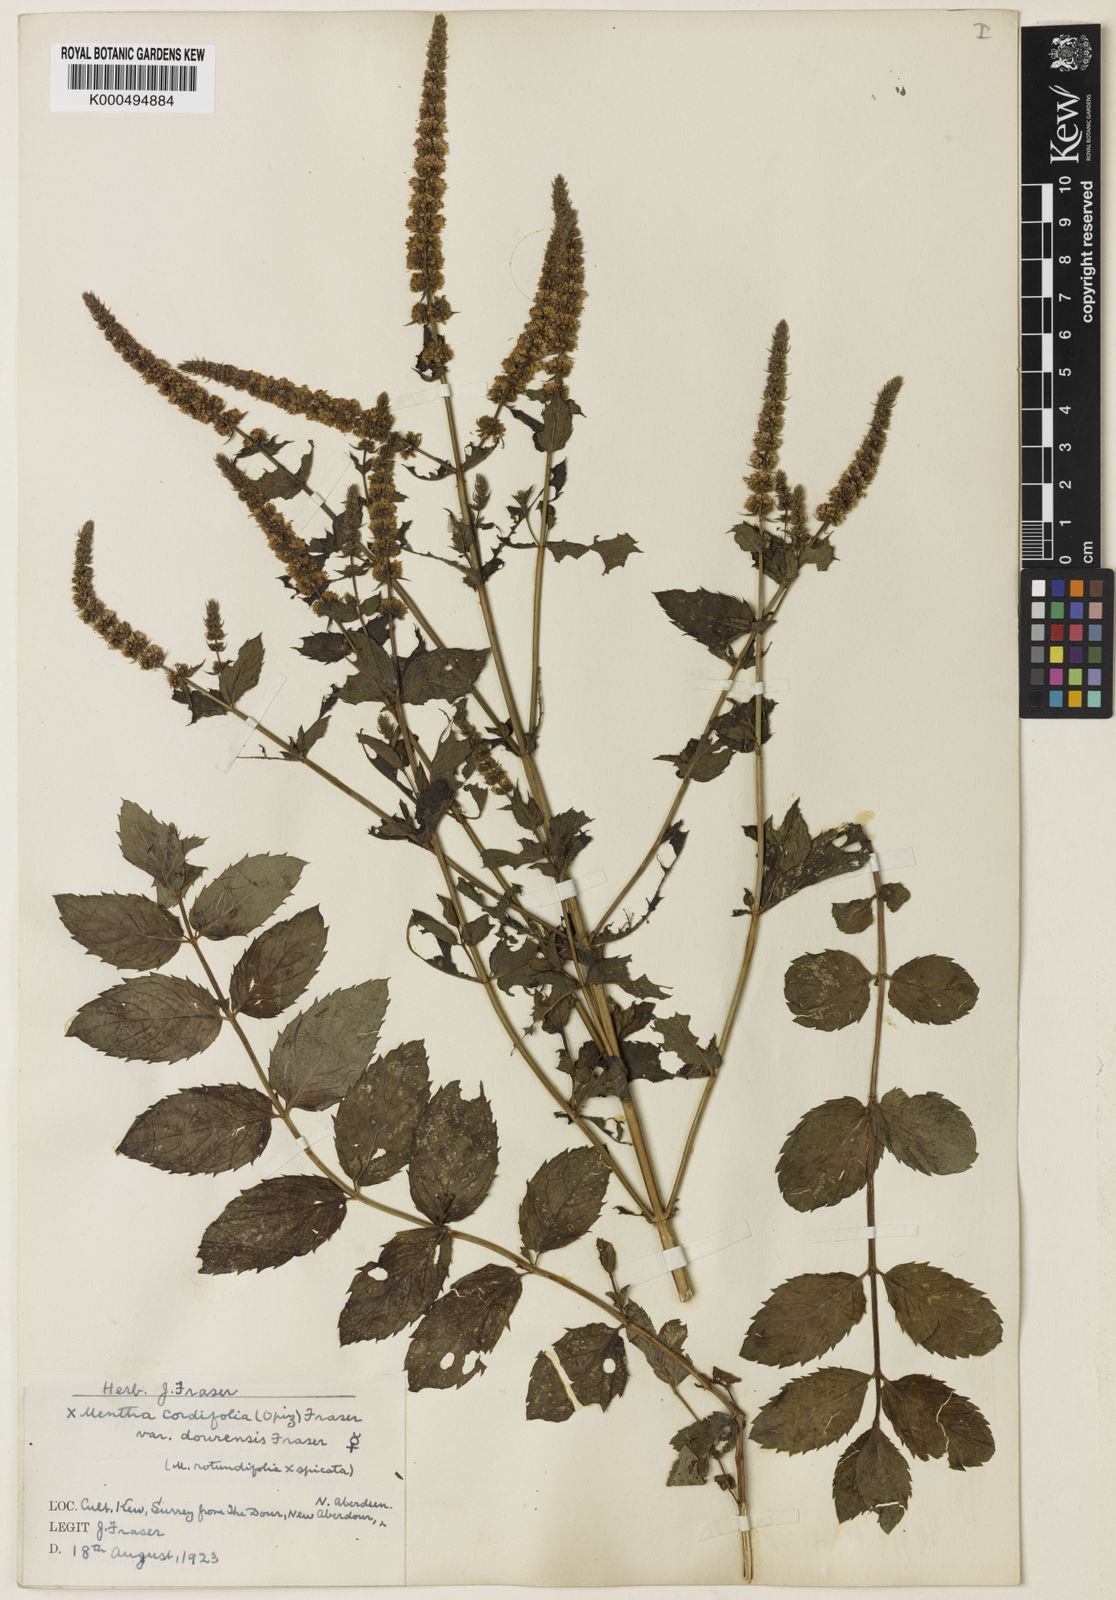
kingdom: Plantae
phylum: Tracheophyta
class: Magnoliopsida
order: Lamiales
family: Lamiaceae
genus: Mentha
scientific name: Mentha villosa
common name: Apple mint
